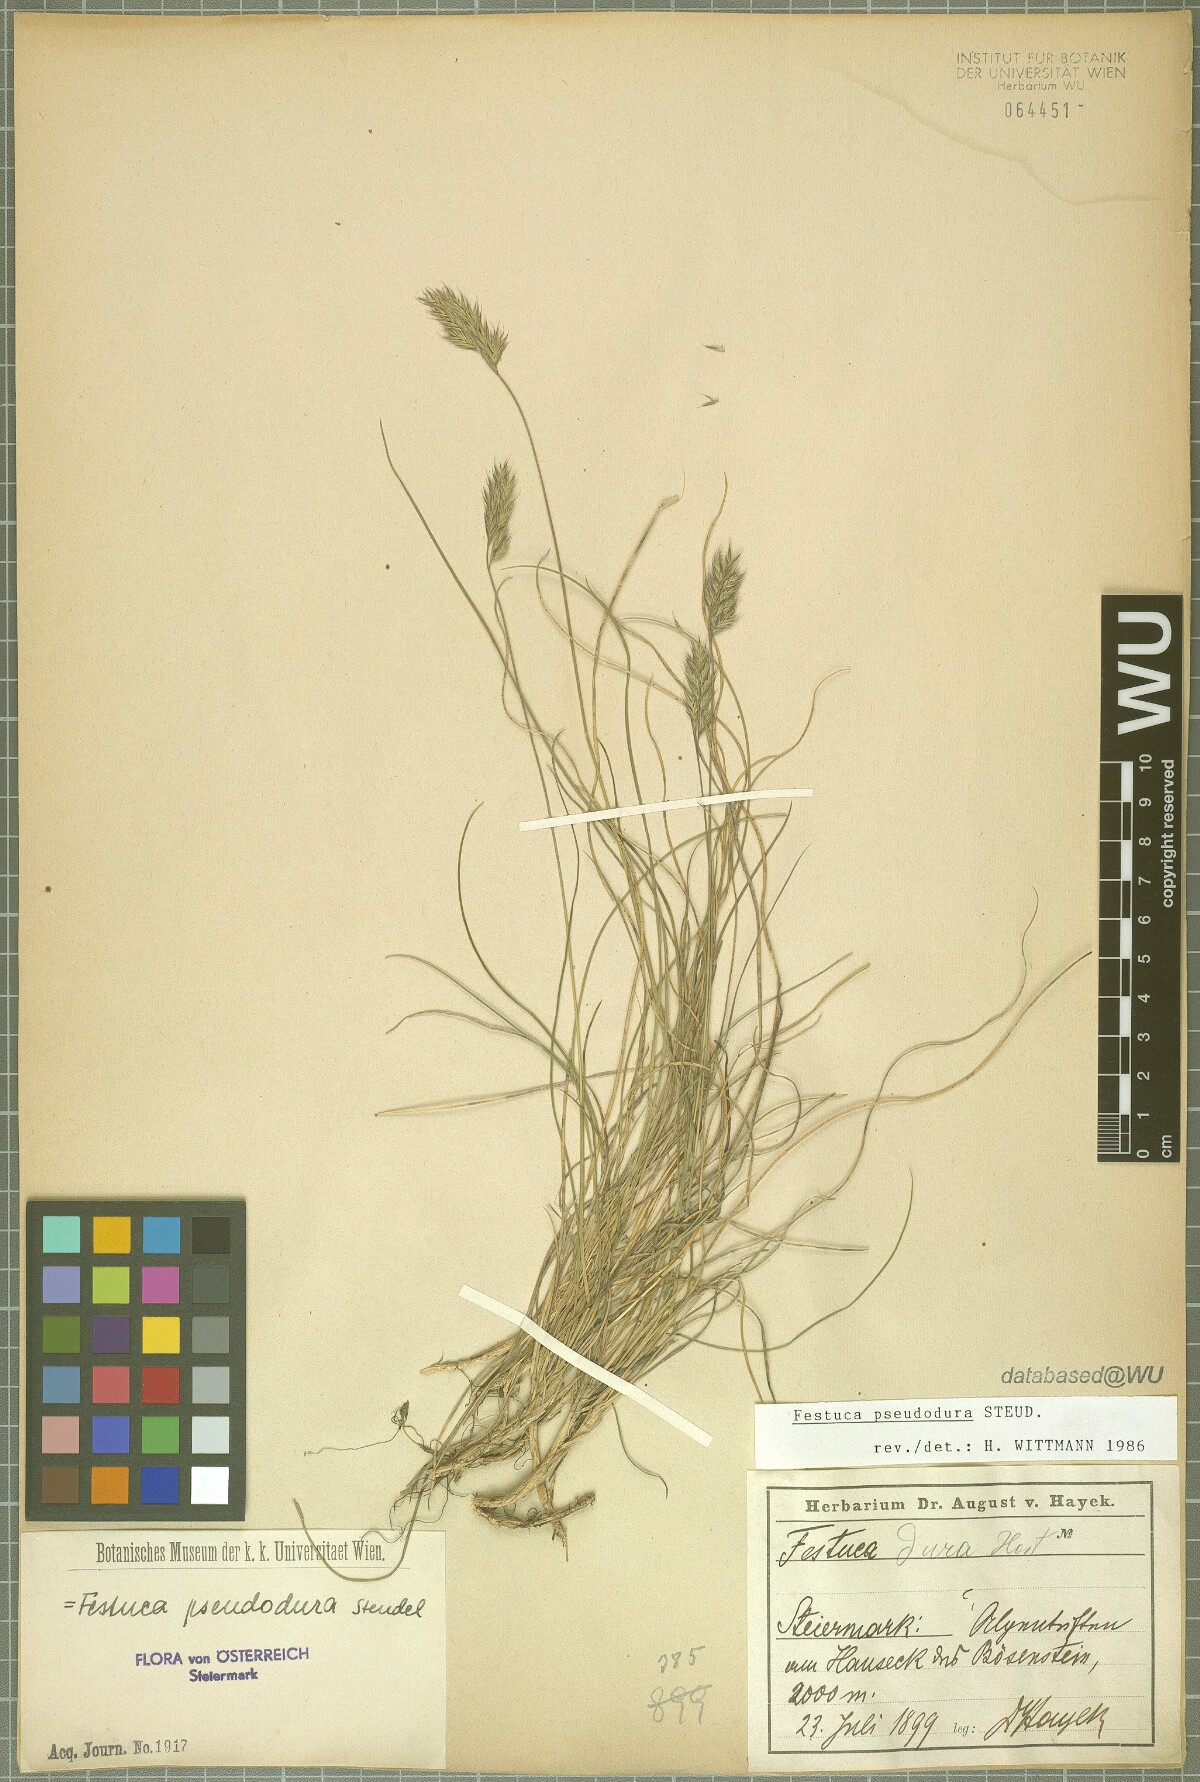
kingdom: Plantae
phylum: Tracheophyta
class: Liliopsida
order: Poales
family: Poaceae
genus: Festuca
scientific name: Festuca pseudodura
